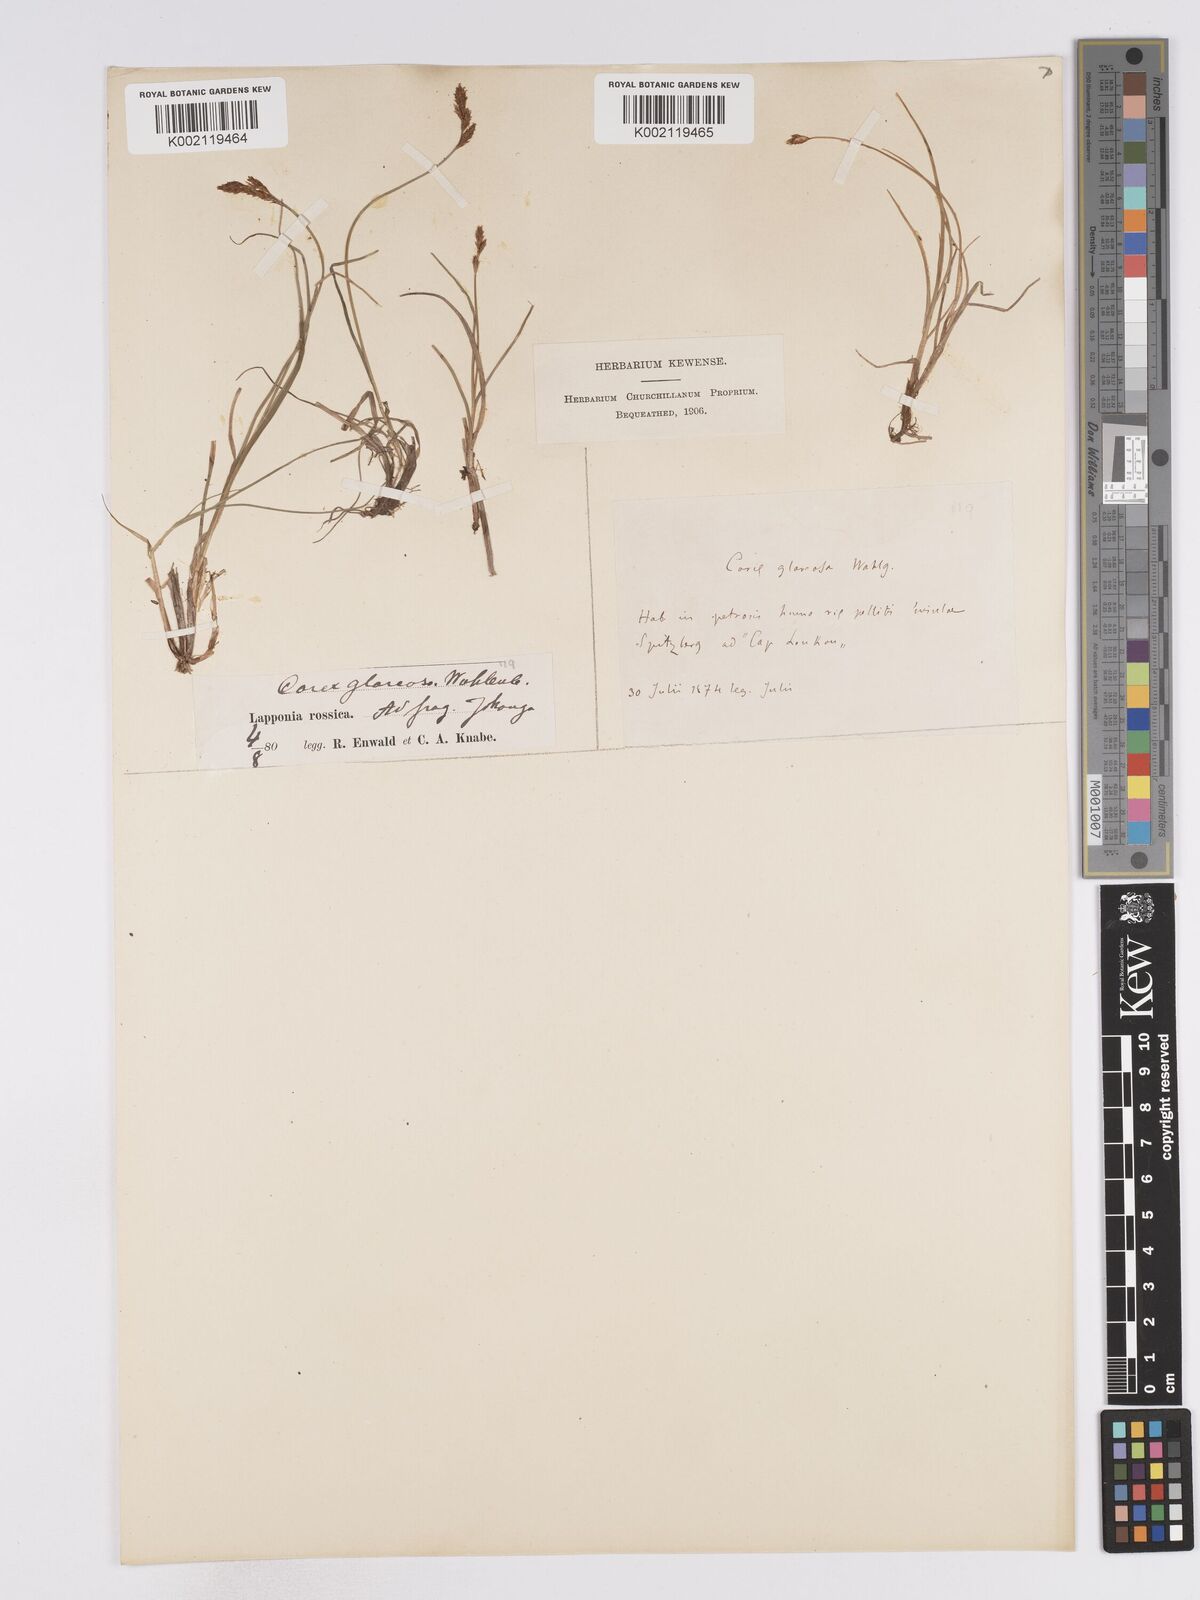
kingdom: Plantae
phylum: Tracheophyta
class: Liliopsida
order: Poales
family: Cyperaceae
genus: Carex
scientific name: Carex glareosa
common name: Clustered sedge
